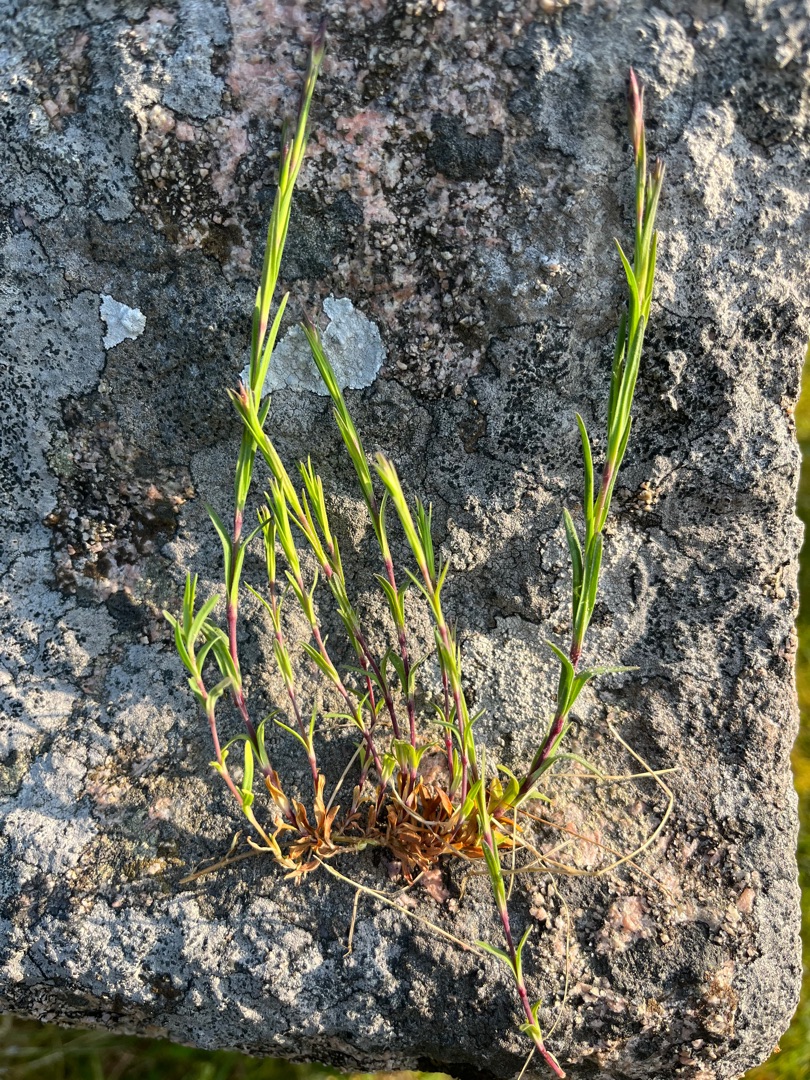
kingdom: Plantae
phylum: Tracheophyta
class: Magnoliopsida
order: Caryophyllales
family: Caryophyllaceae
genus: Viscaria
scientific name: Viscaria vulgaris
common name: Tjærenellike
